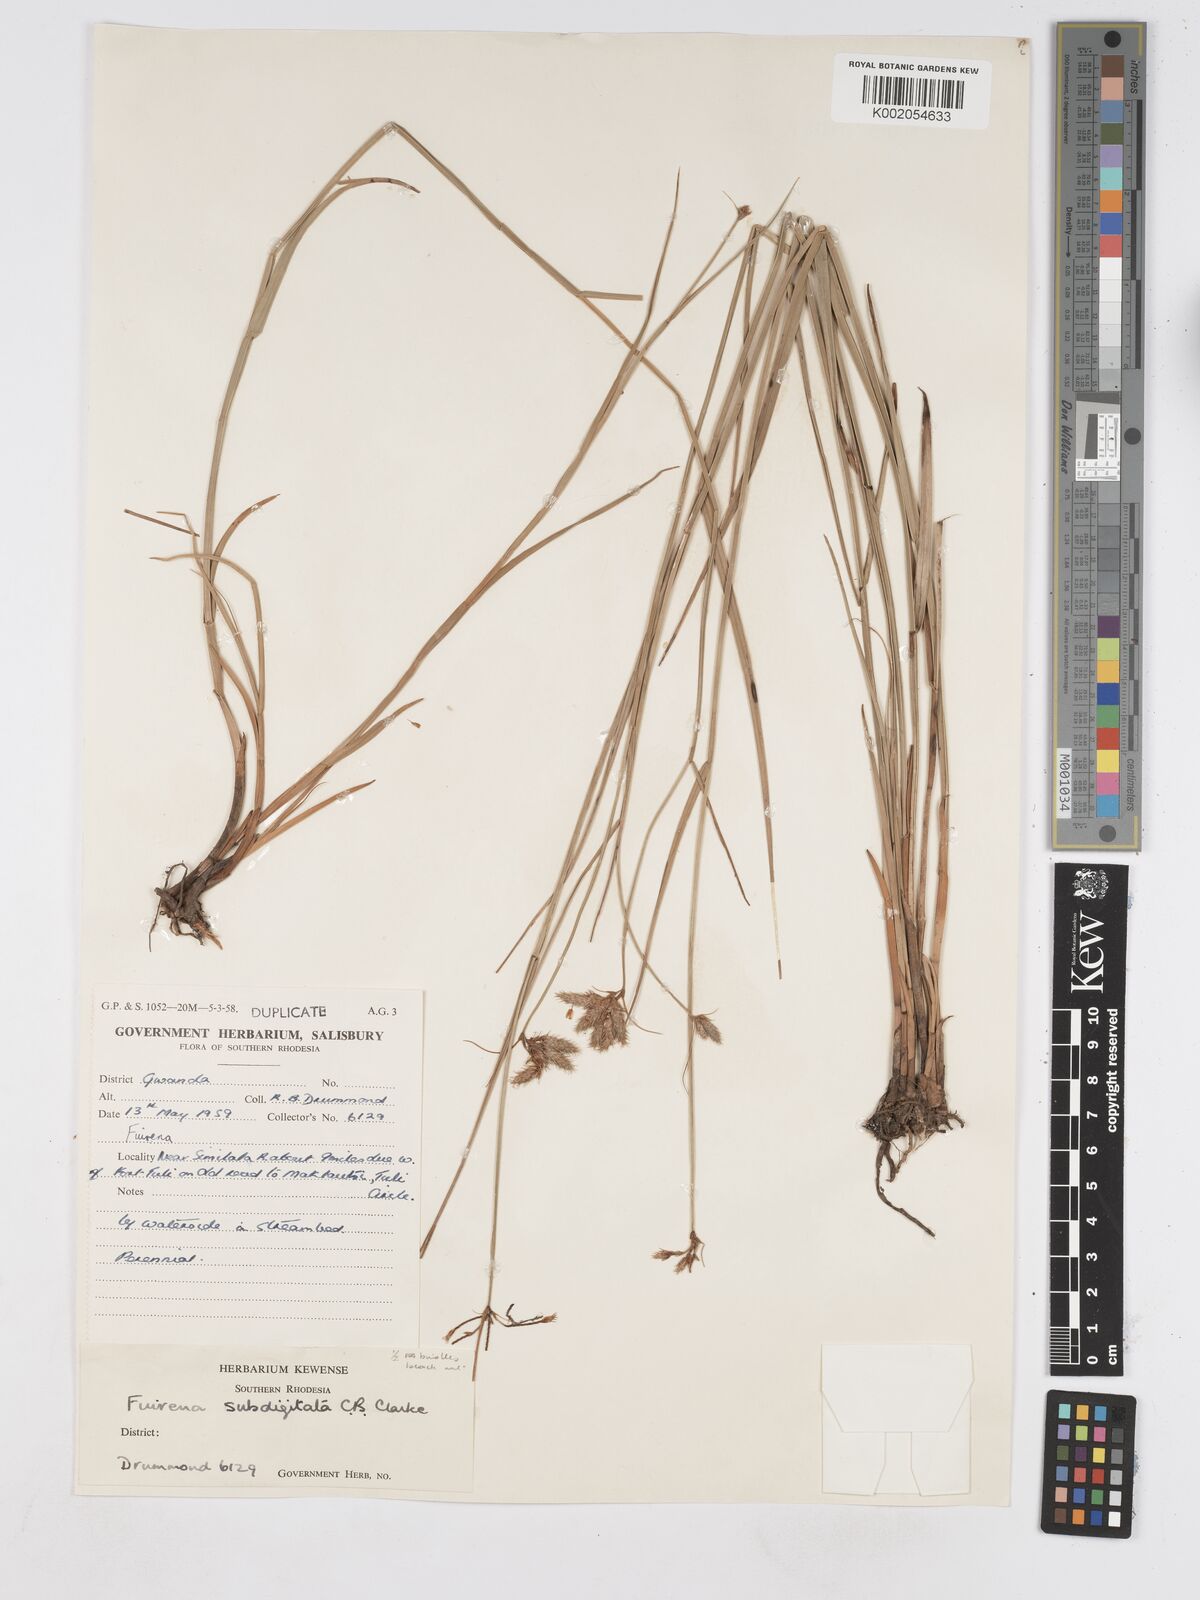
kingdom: Plantae
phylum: Tracheophyta
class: Liliopsida
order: Poales
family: Cyperaceae
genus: Fuirena
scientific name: Fuirena coerulescens
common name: Blue umbrella-sedge
